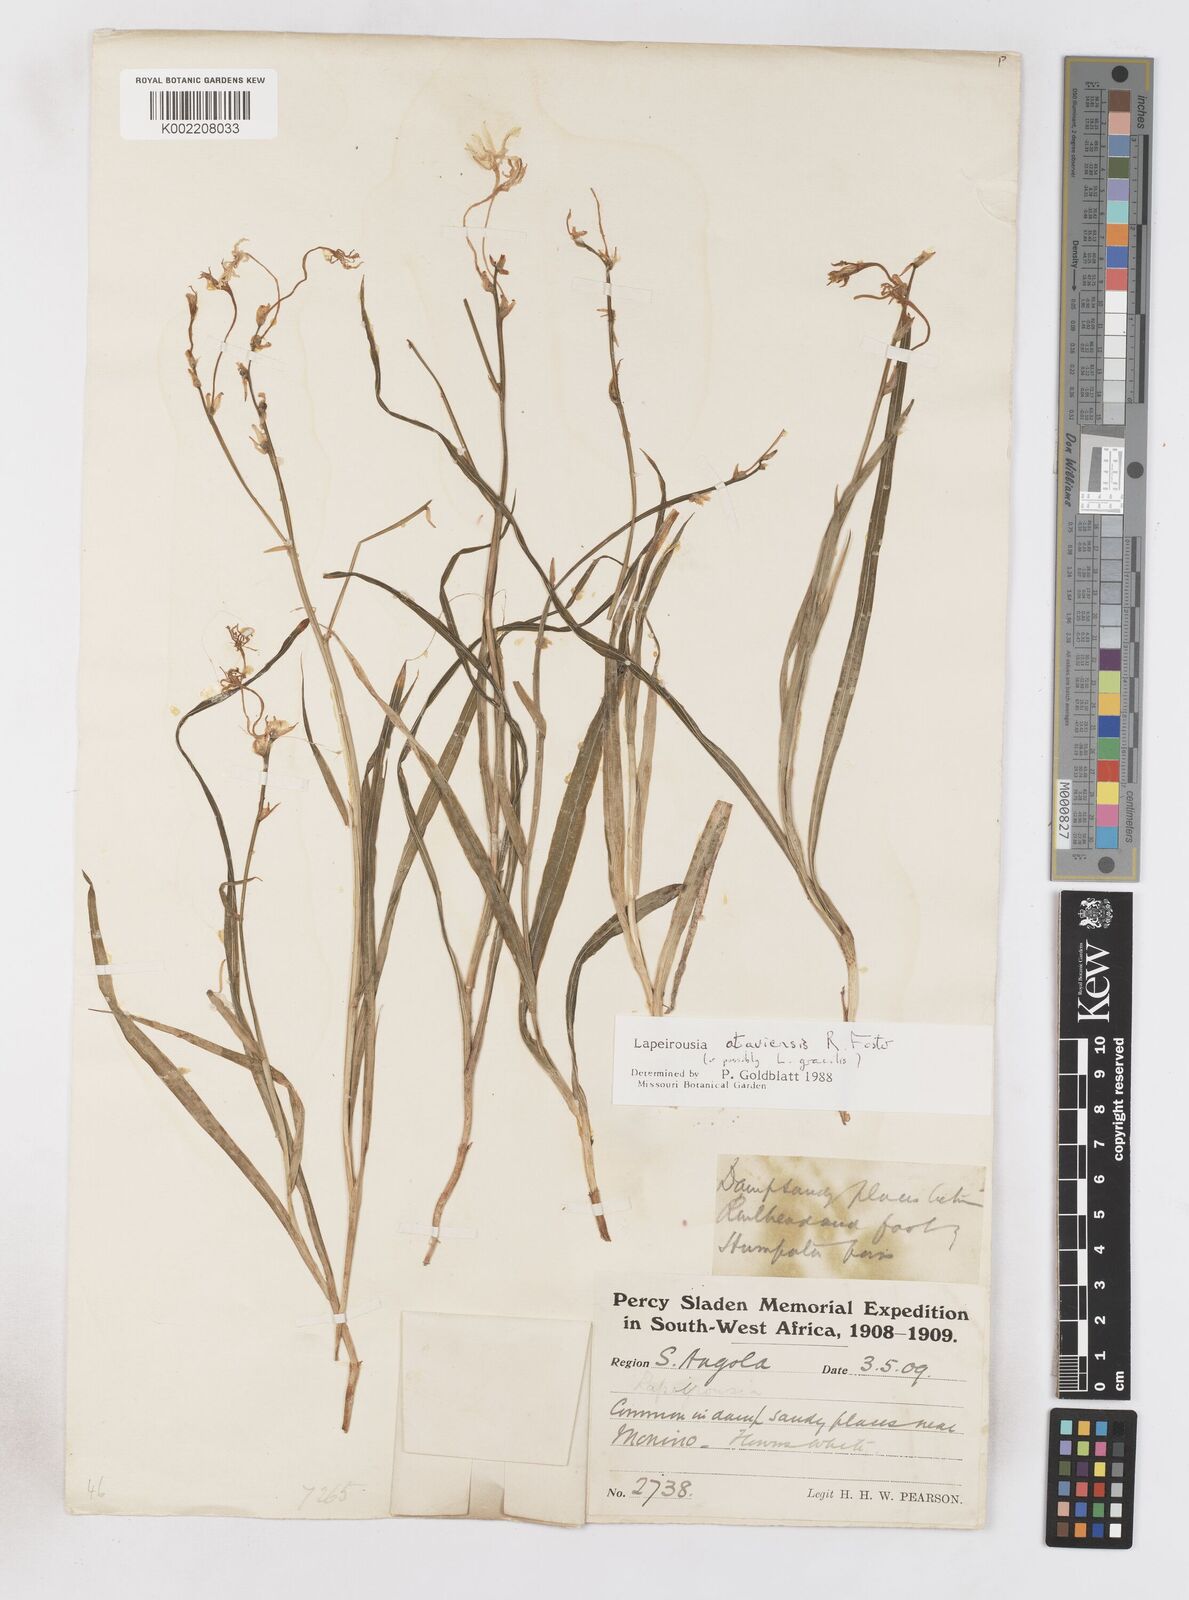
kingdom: Plantae
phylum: Tracheophyta
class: Liliopsida
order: Asparagales
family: Iridaceae
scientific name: Iridaceae
